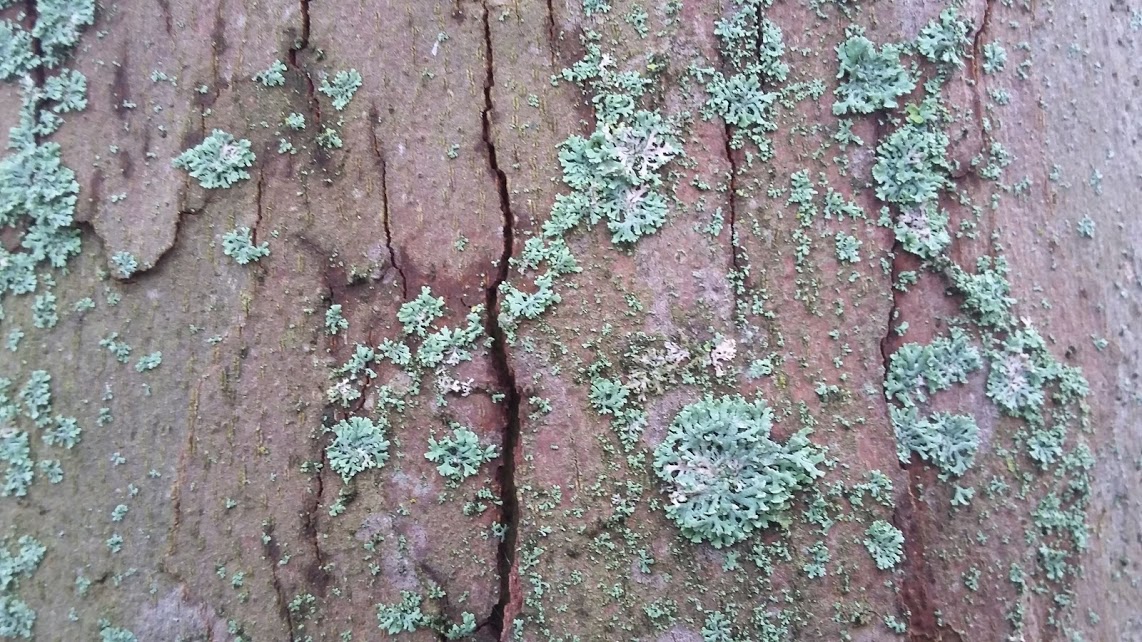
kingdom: Fungi
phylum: Ascomycota
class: Lecanoromycetes
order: Caliciales
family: Physciaceae
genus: Physcia
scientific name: Physcia tenella
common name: spæd rosetlav
